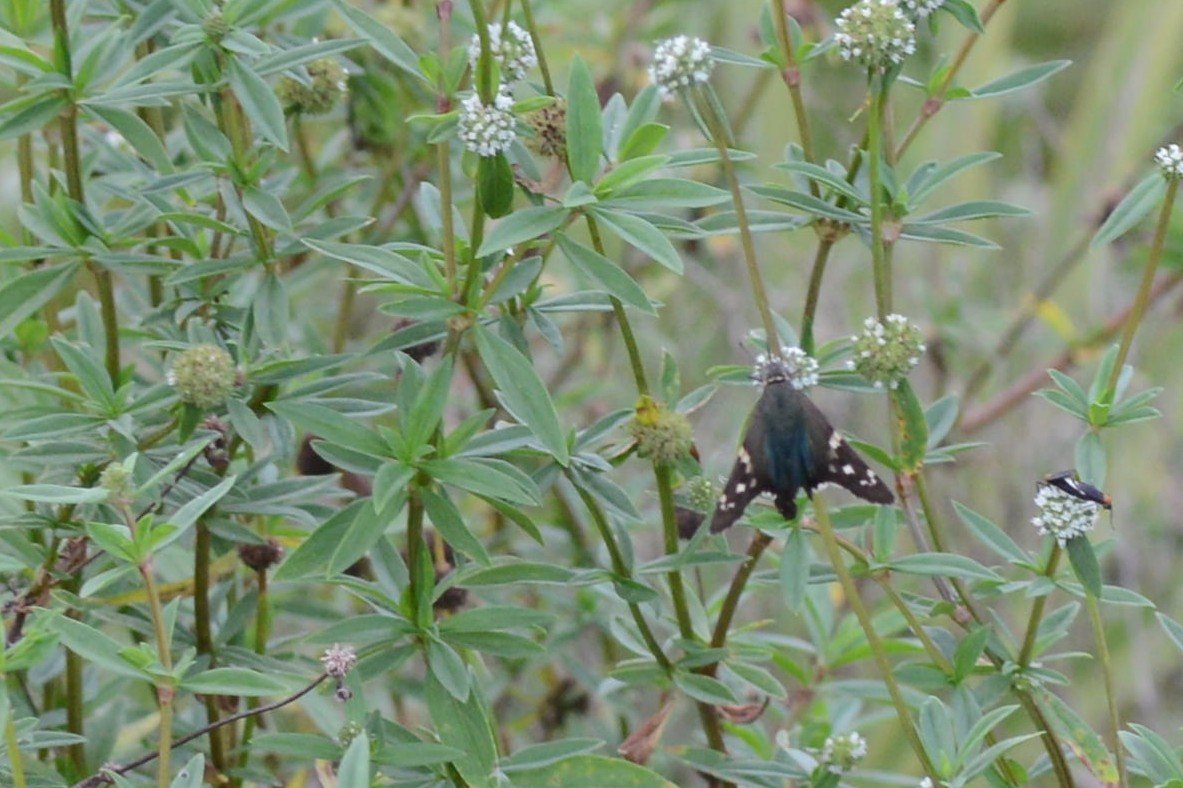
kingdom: Animalia
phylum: Arthropoda
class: Insecta
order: Lepidoptera
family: Hesperiidae
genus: Urbanus
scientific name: Urbanus proteus
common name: Long-tailed Skipper
